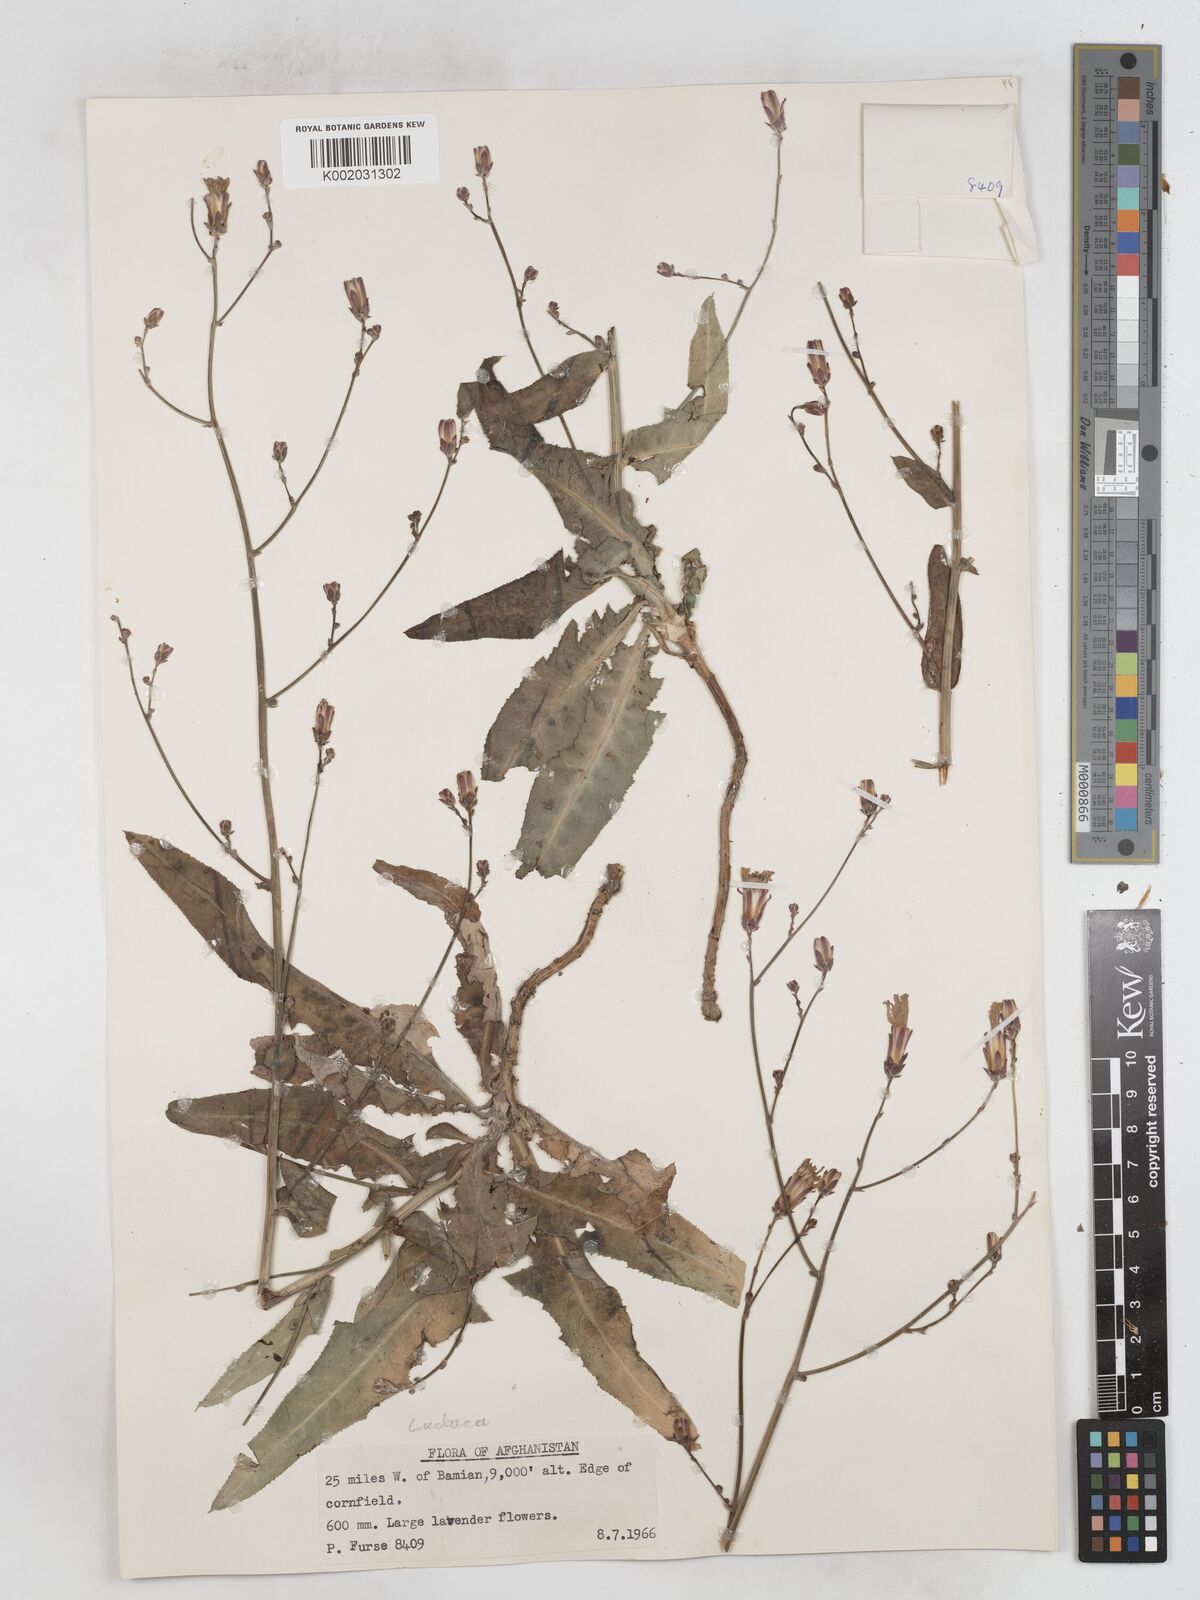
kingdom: Plantae
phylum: Tracheophyta
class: Magnoliopsida
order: Asterales
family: Asteraceae
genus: Lactuca
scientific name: Lactuca tatarica
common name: Blue lettuce
